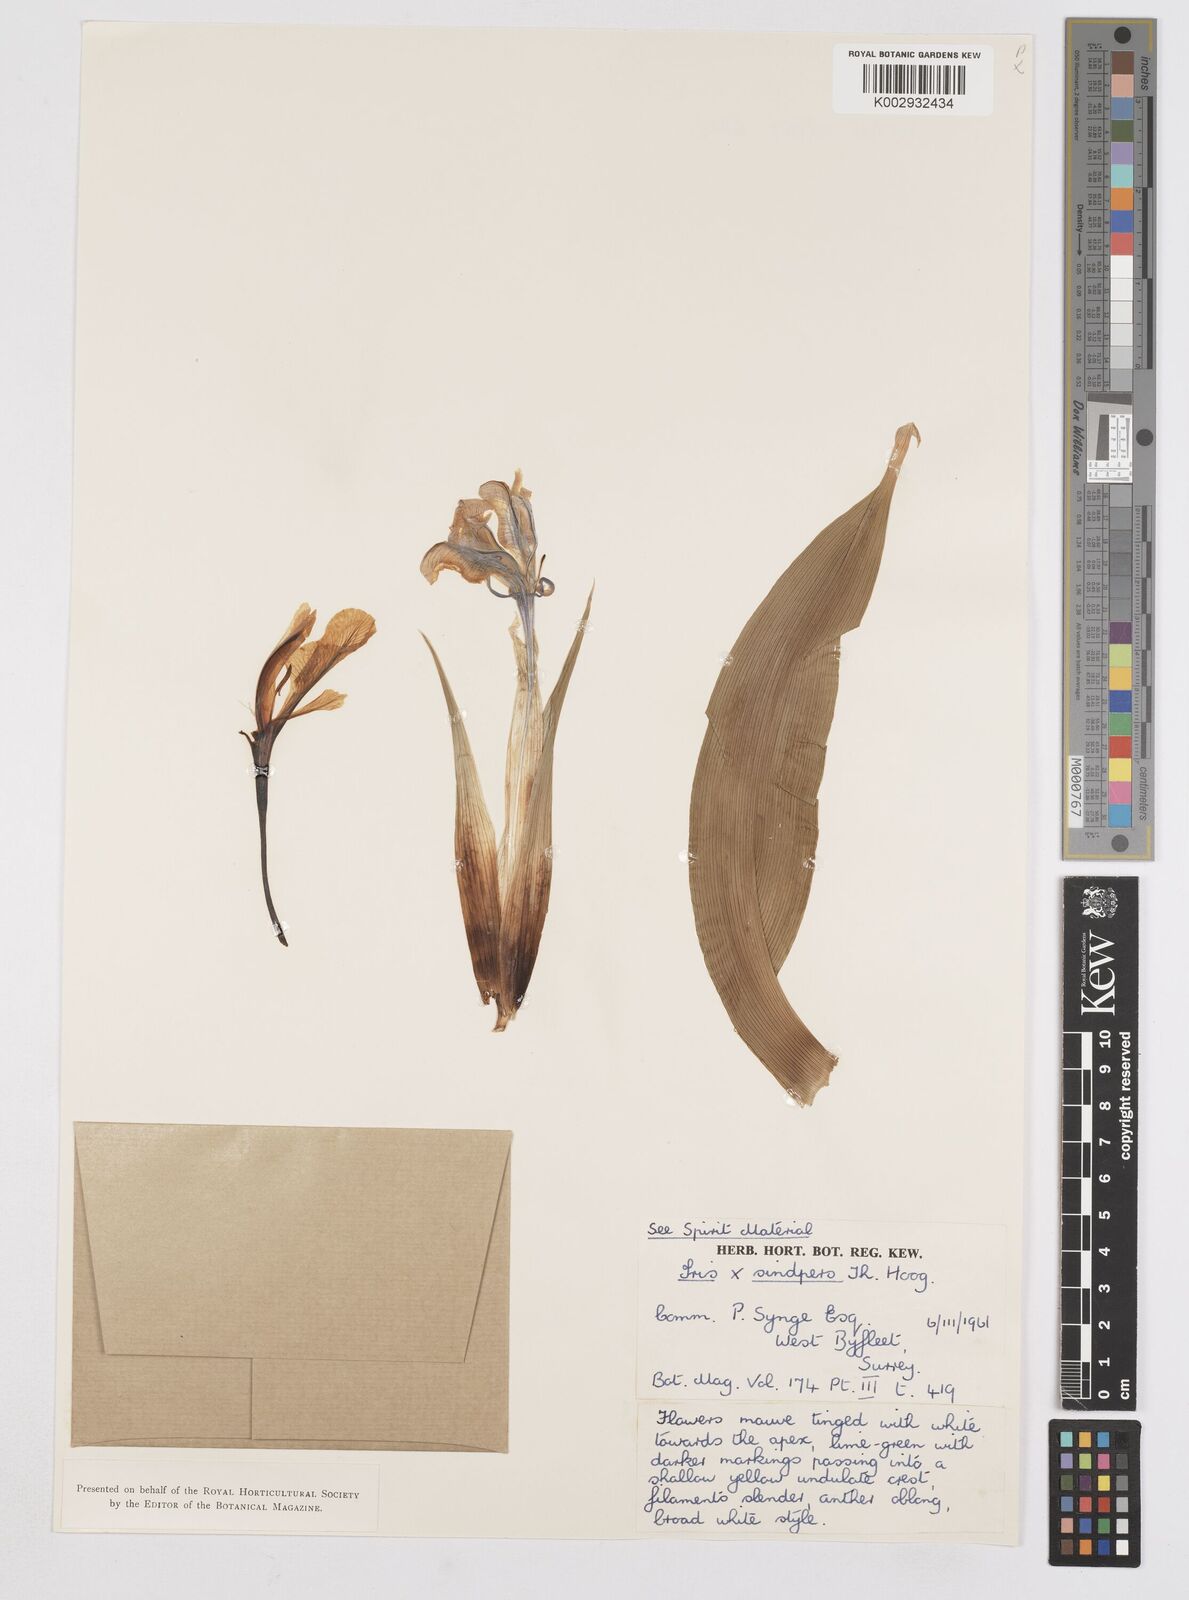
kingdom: Plantae
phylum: Tracheophyta
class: Liliopsida
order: Asparagales
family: Iridaceae
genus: Iris
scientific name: Iris aucheri
